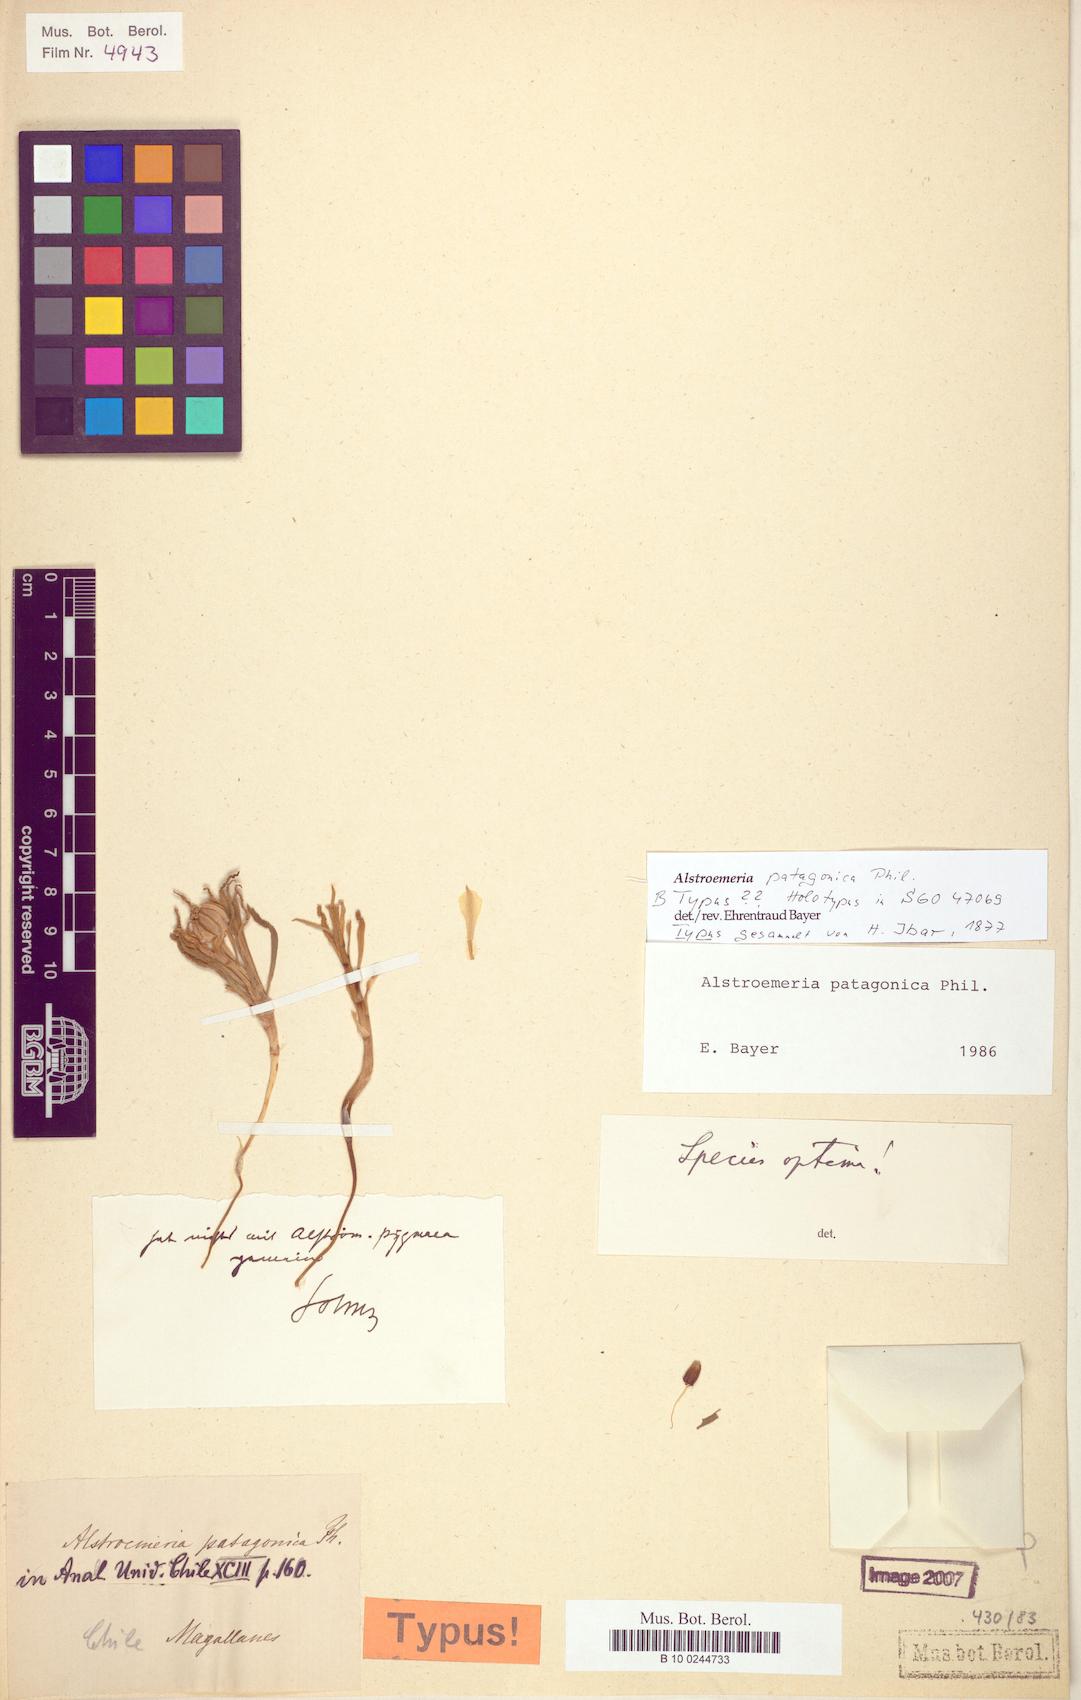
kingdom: Plantae
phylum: Tracheophyta
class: Liliopsida
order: Liliales
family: Alstroemeriaceae
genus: Alstroemeria
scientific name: Alstroemeria patagonica
